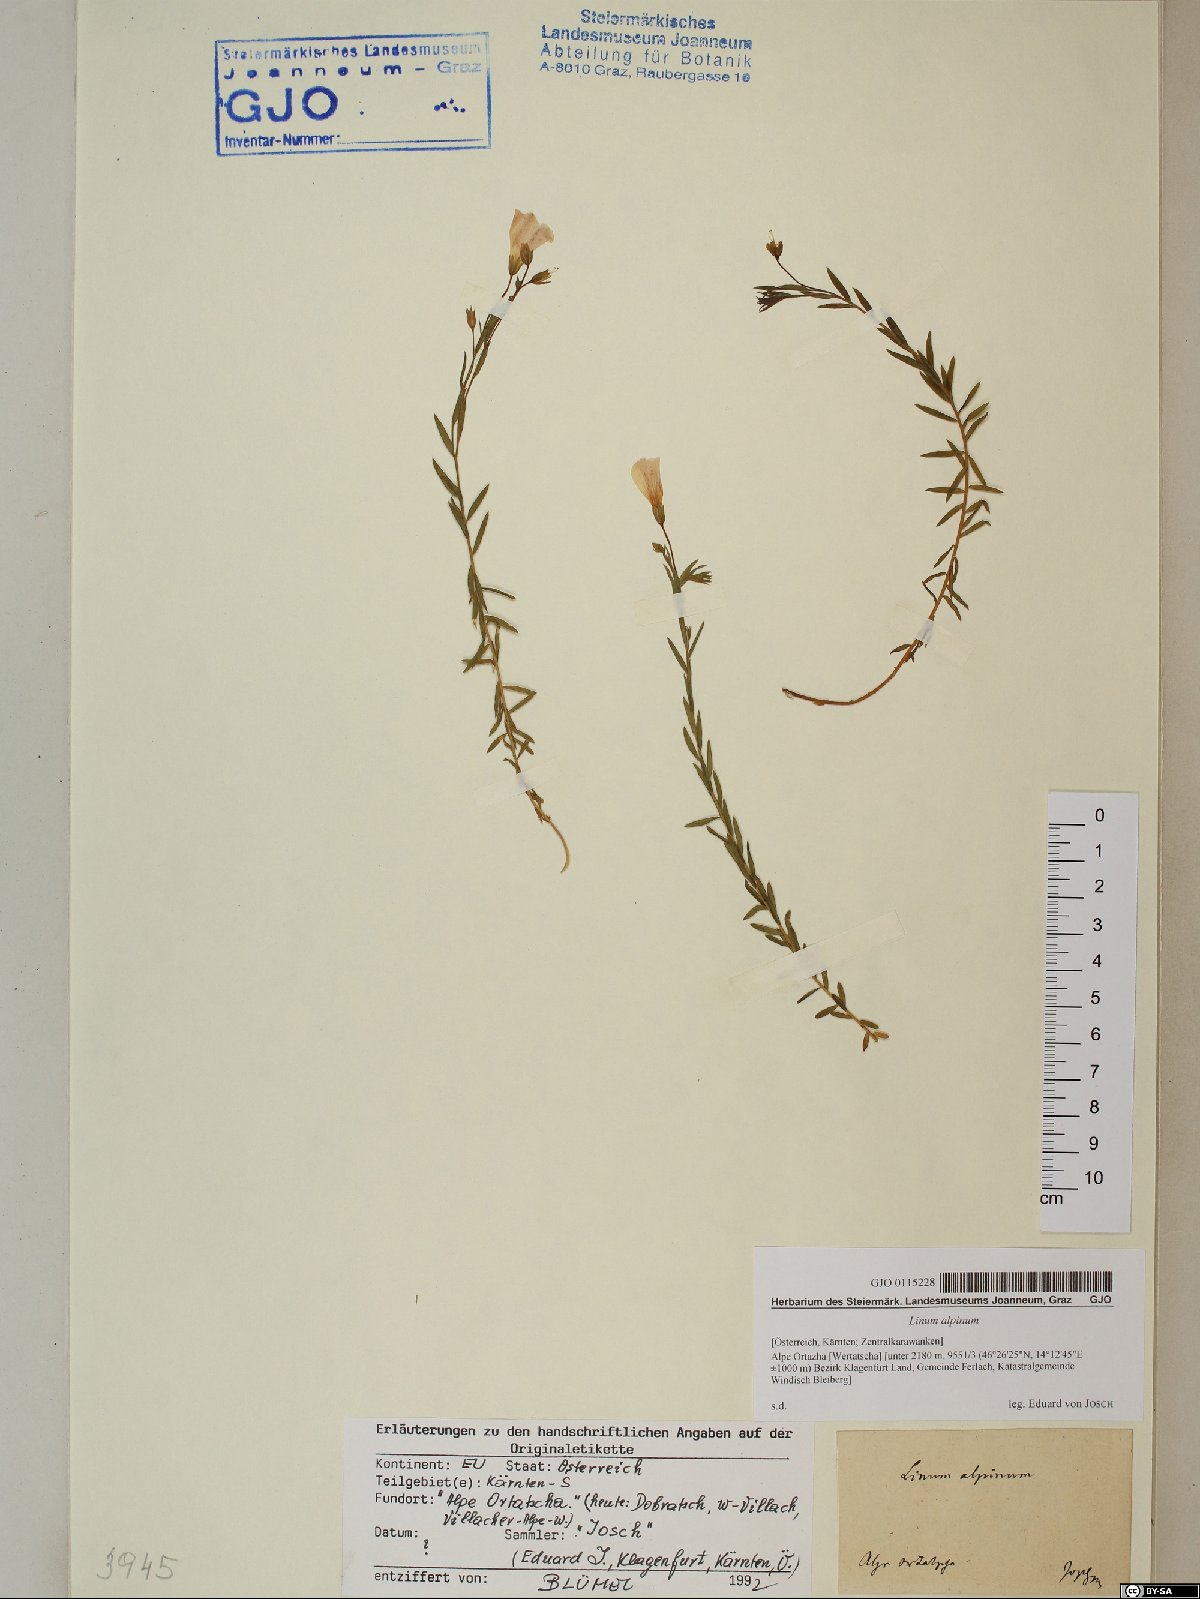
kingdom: Plantae
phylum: Tracheophyta
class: Magnoliopsida
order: Malpighiales
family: Linaceae
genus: Linum
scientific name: Linum alpinum
